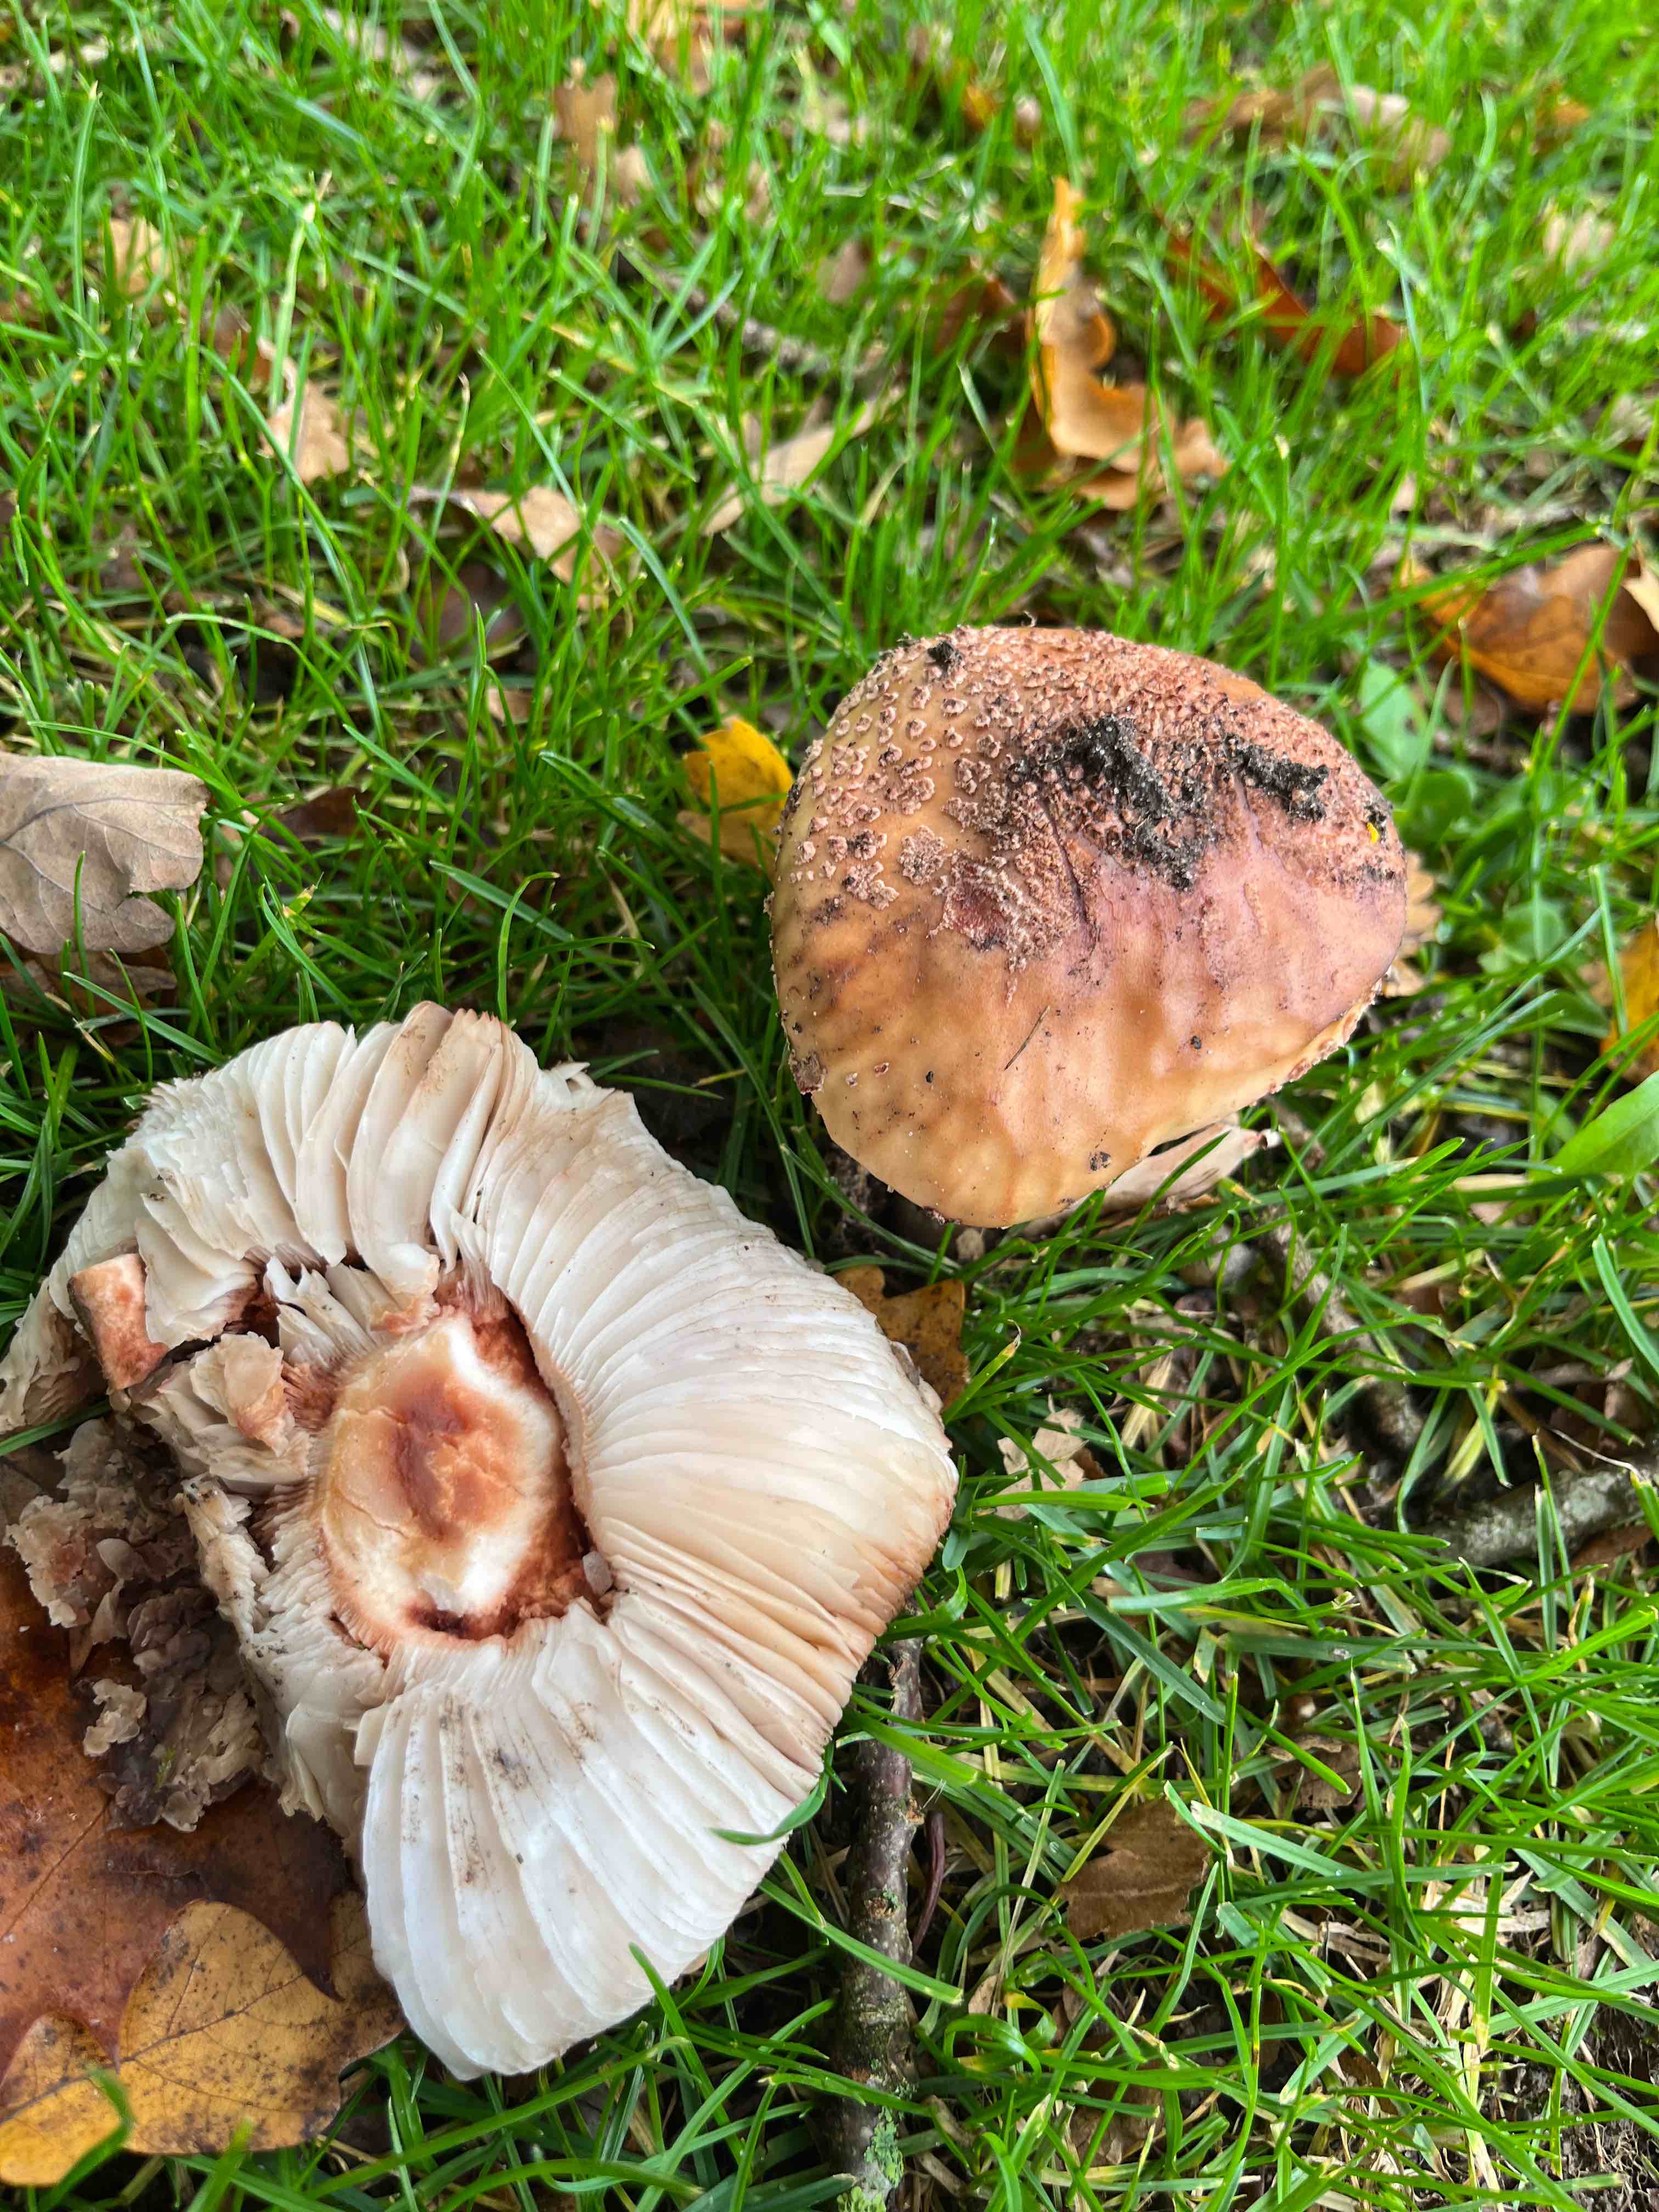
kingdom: Fungi
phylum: Basidiomycota
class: Agaricomycetes
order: Agaricales
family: Amanitaceae
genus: Amanita
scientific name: Amanita rubescens
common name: rødmende fluesvamp
